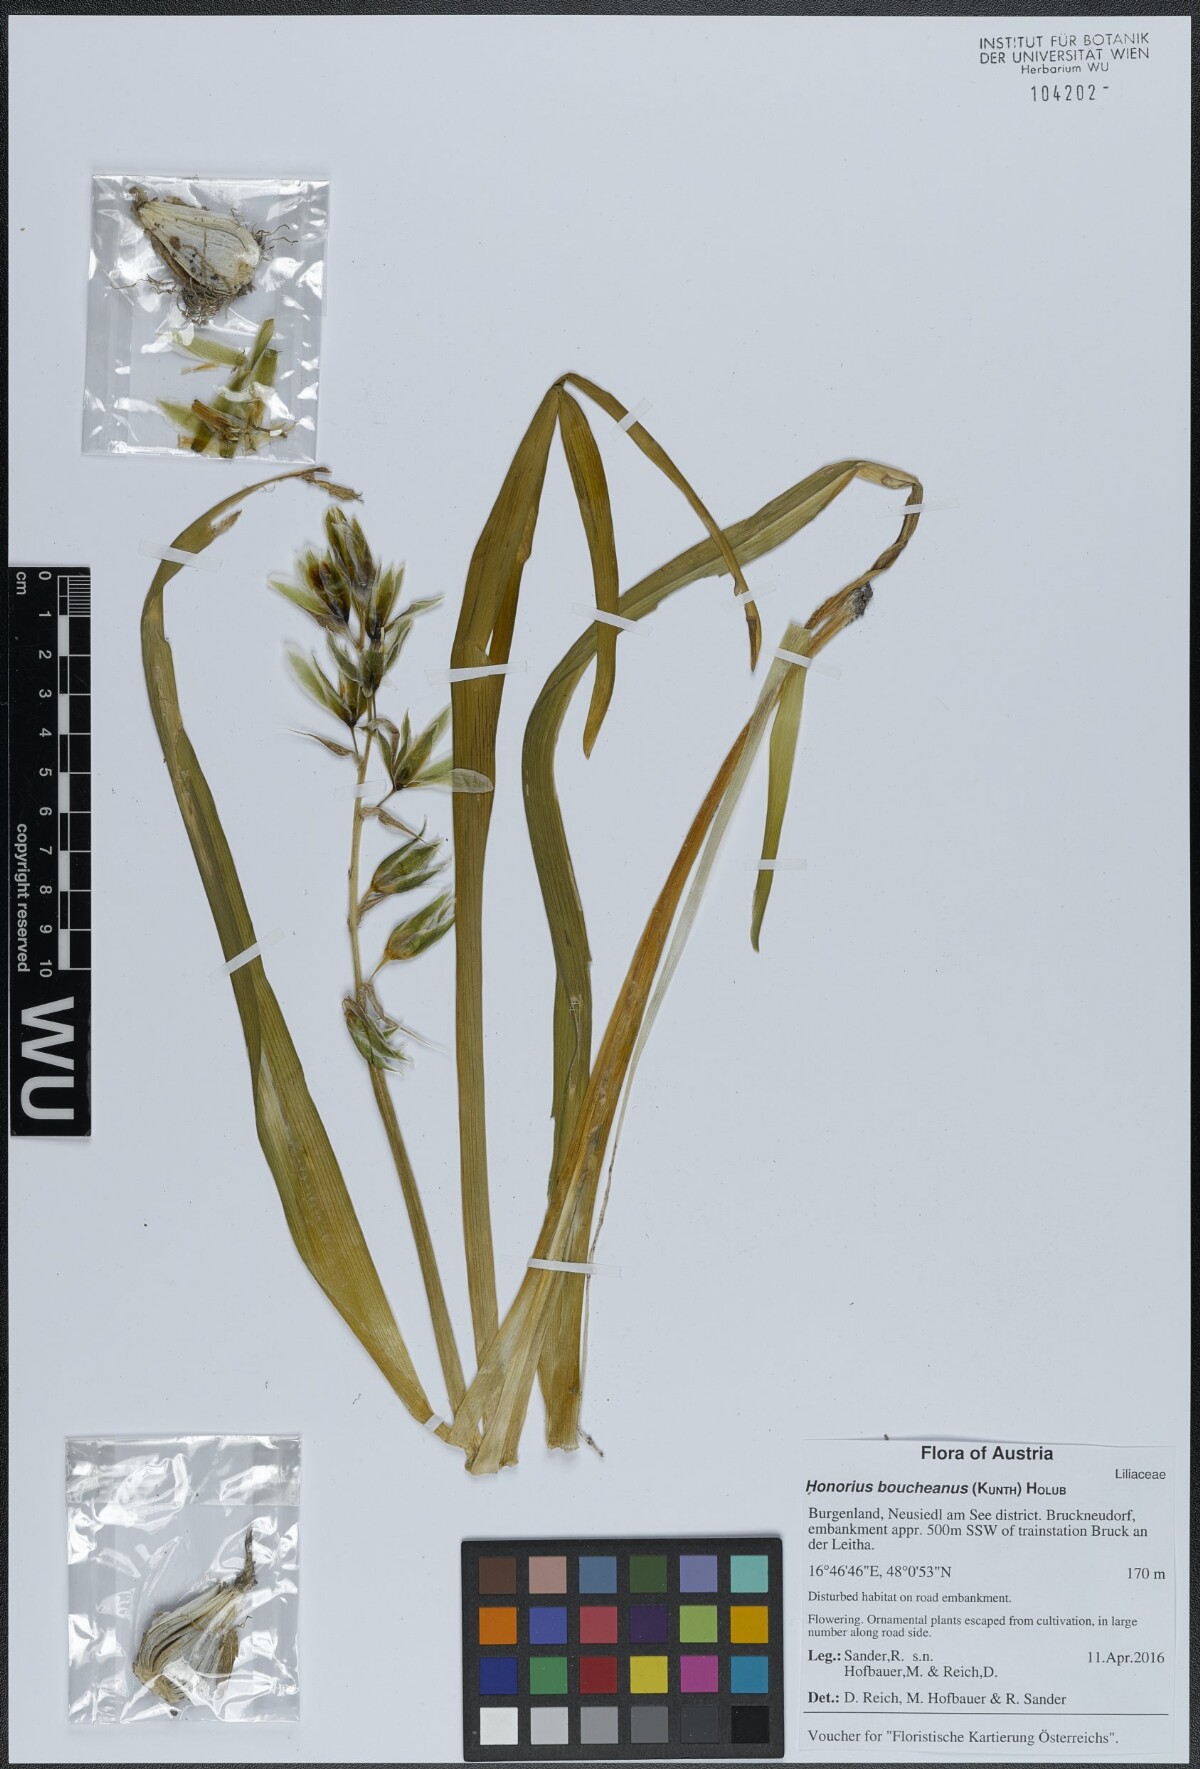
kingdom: Plantae
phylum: Tracheophyta
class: Liliopsida
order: Asparagales
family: Asparagaceae
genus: Ornithogalum
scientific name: Ornithogalum boucheanum
